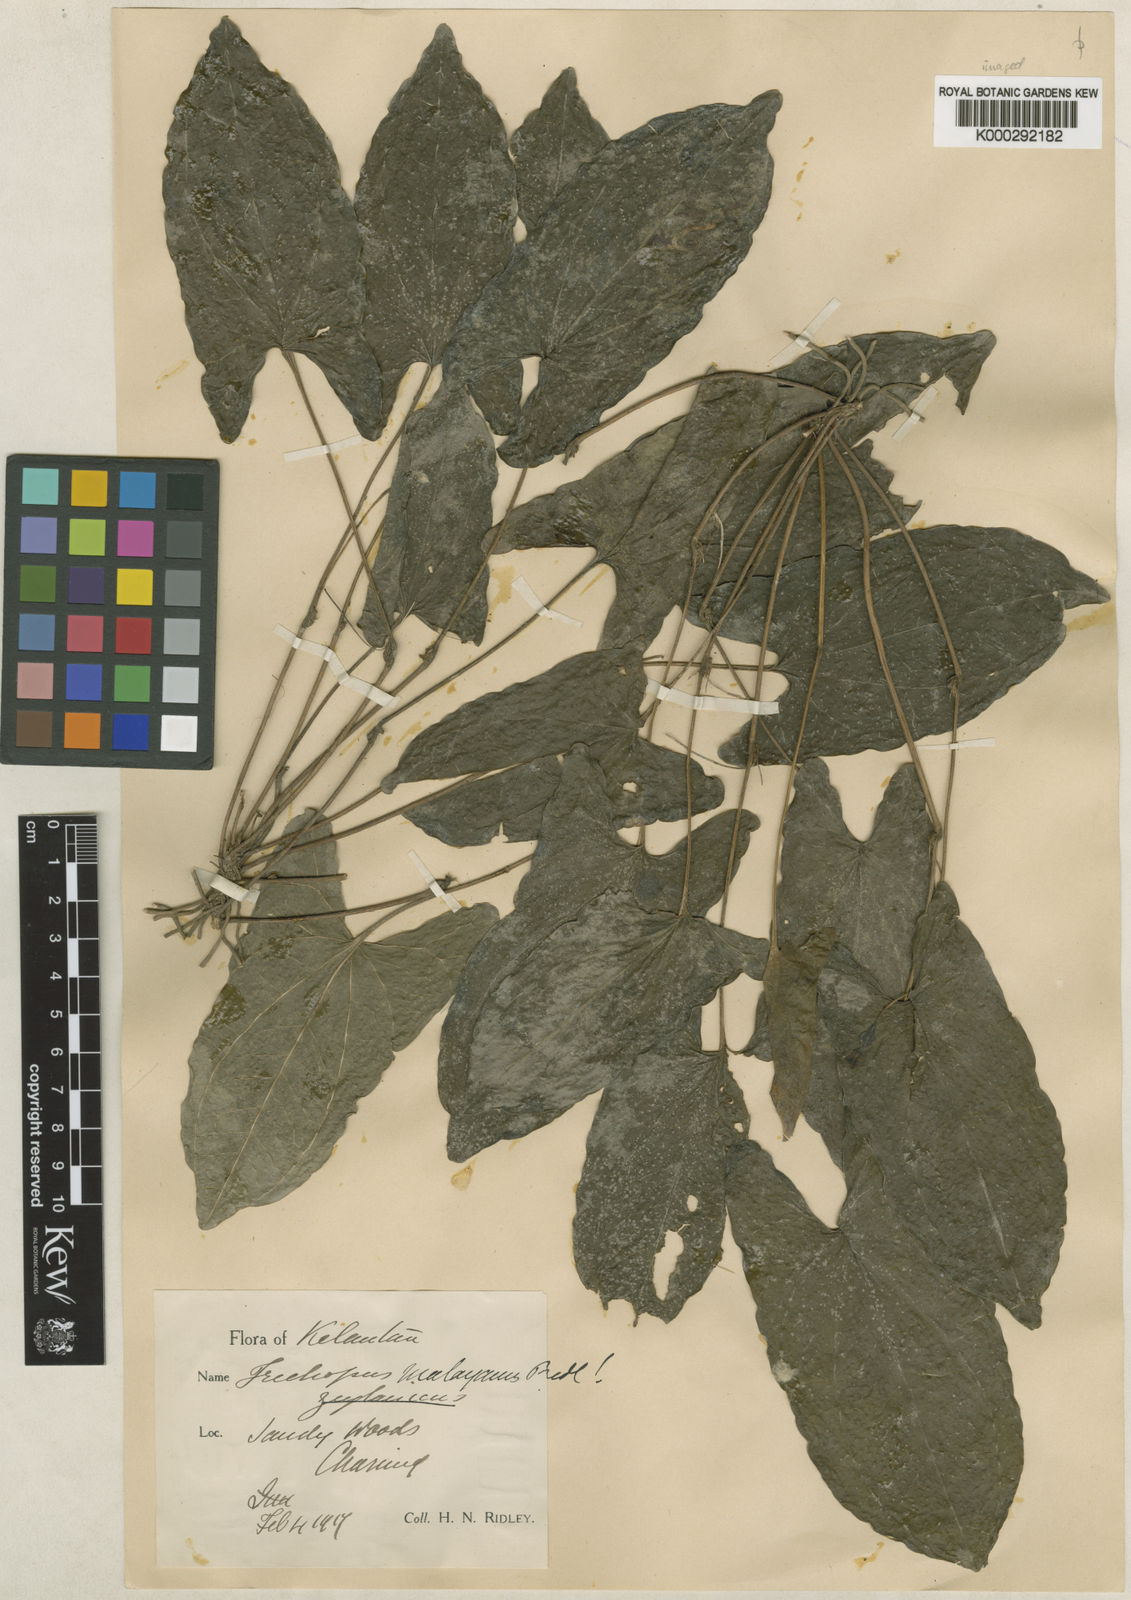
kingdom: Plantae
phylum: Tracheophyta
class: Liliopsida
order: Dioscoreales
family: Dioscoreaceae
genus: Trichopus
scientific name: Trichopus zeylanicus
